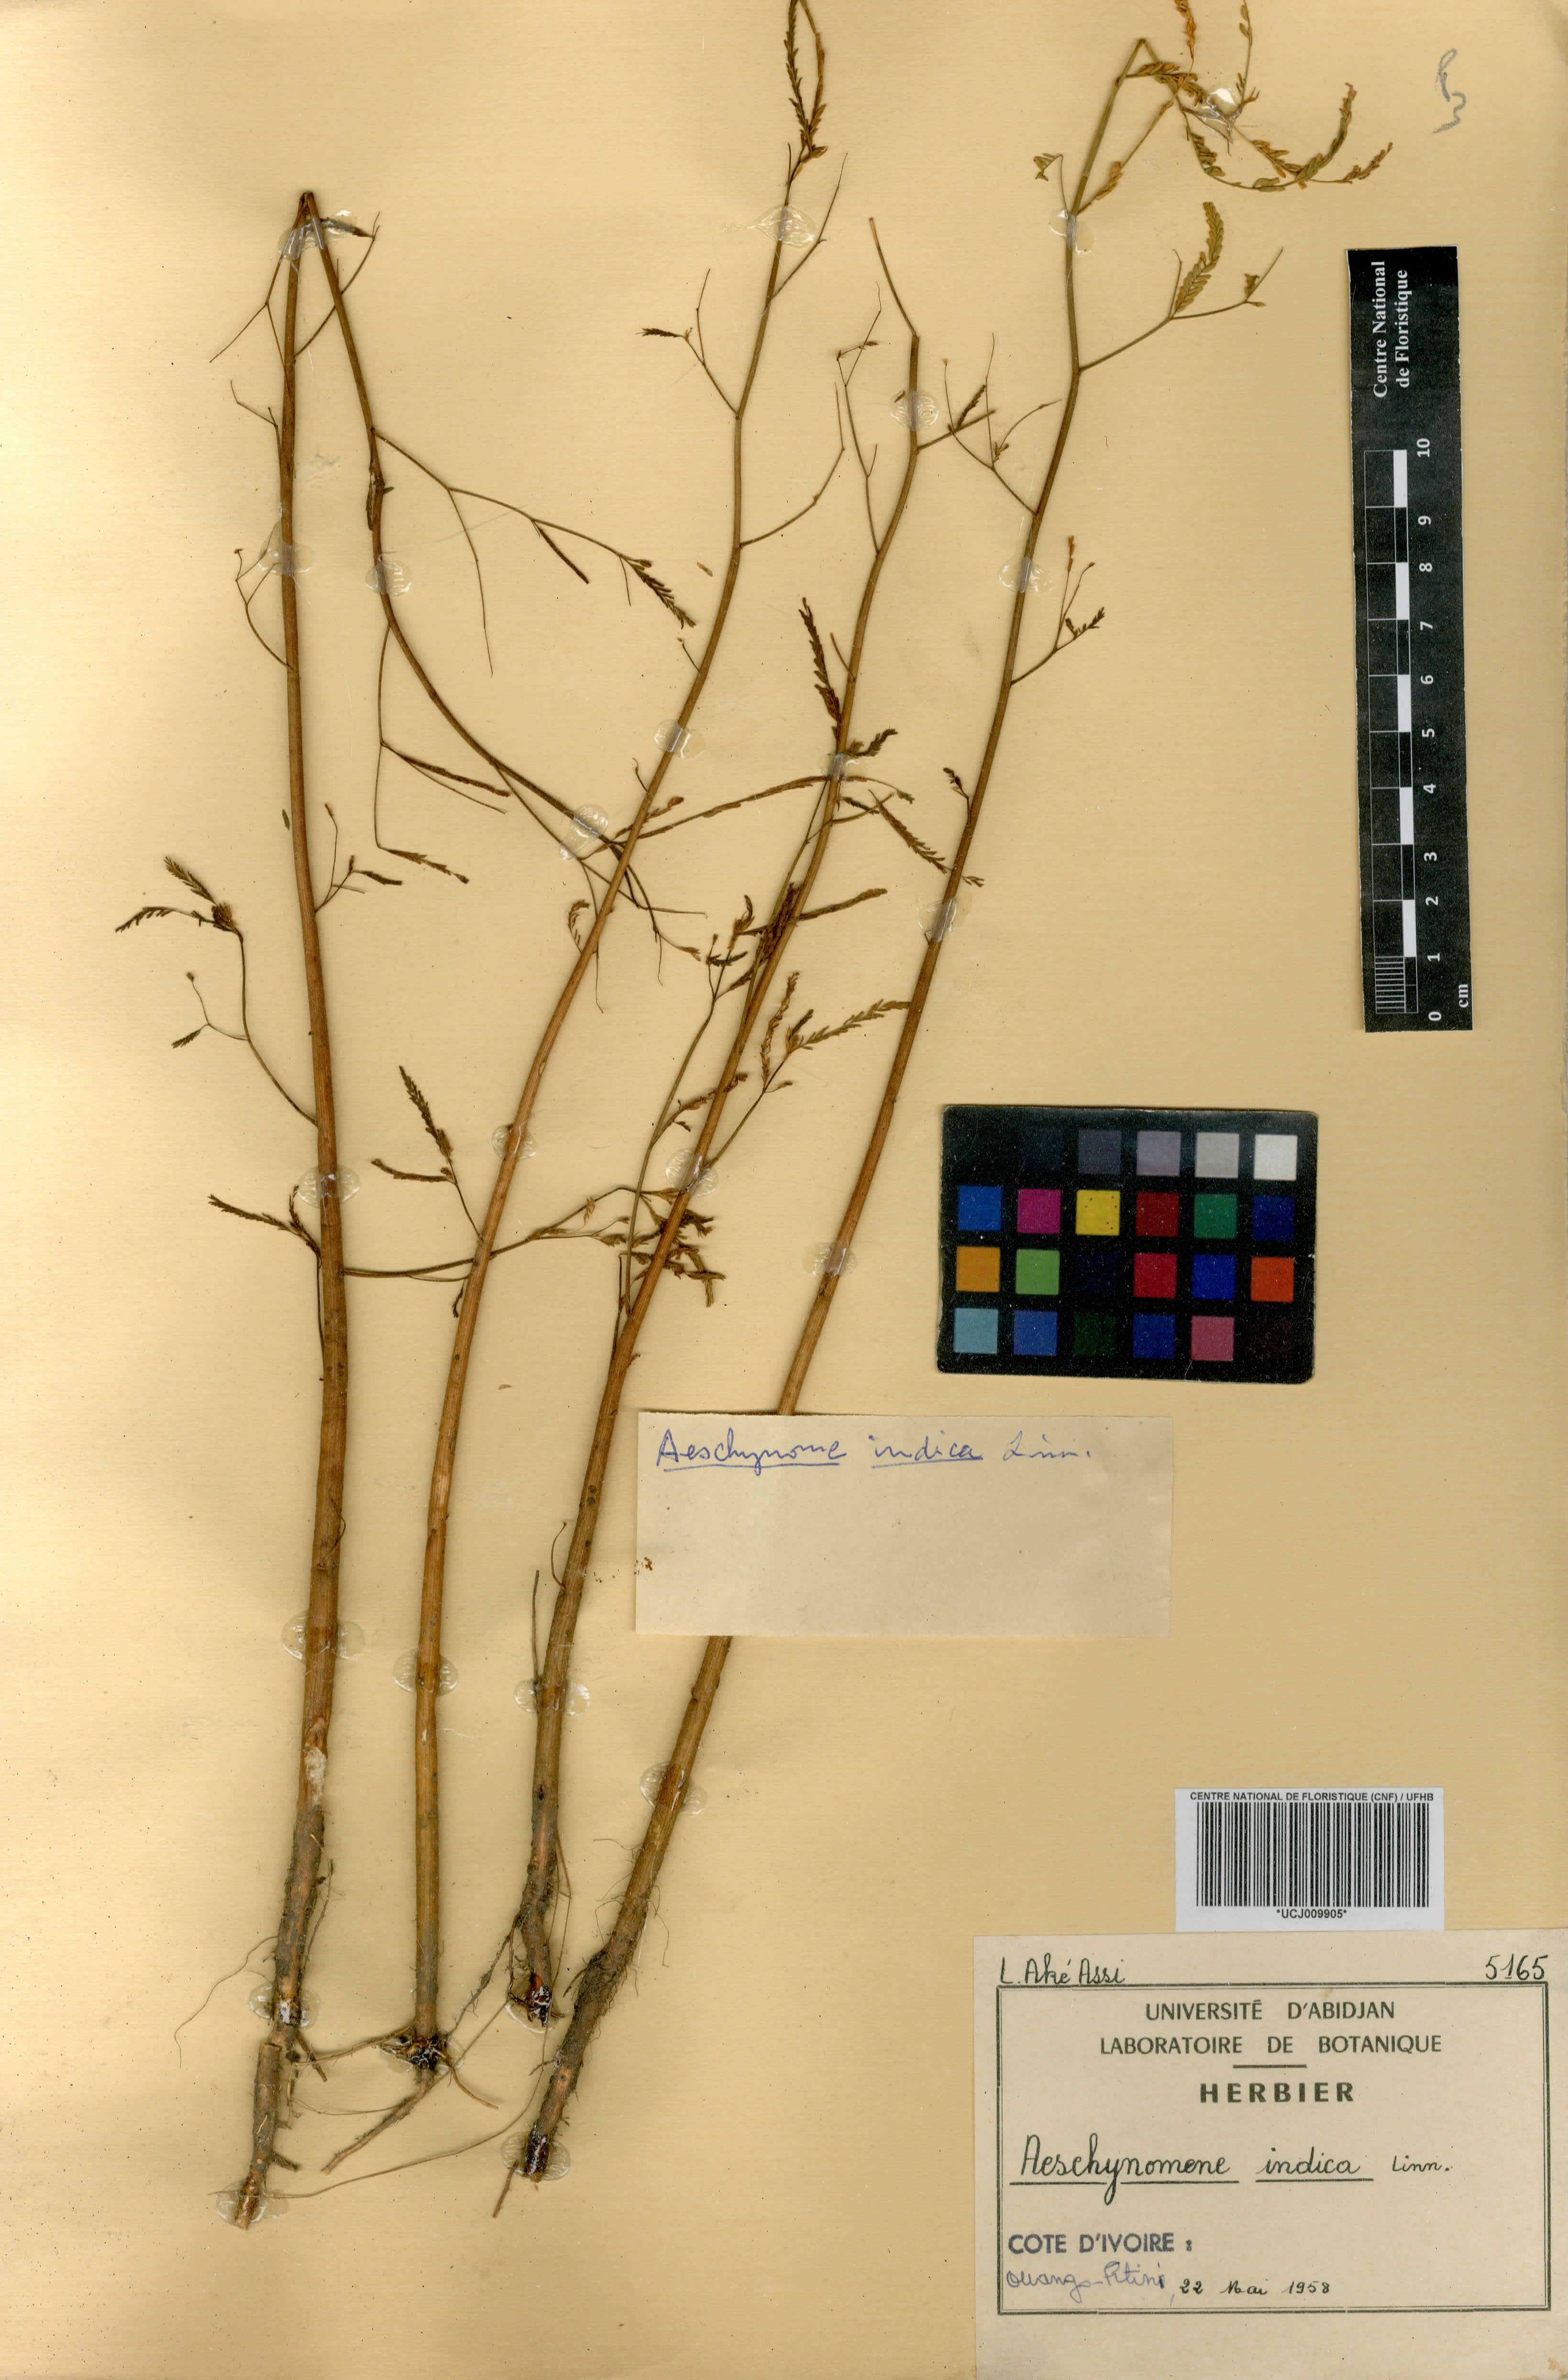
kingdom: Plantae
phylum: Tracheophyta
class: Magnoliopsida
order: Fabales
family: Fabaceae
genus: Aeschynomene
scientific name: Aeschynomene indica
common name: Indian jointvetch
